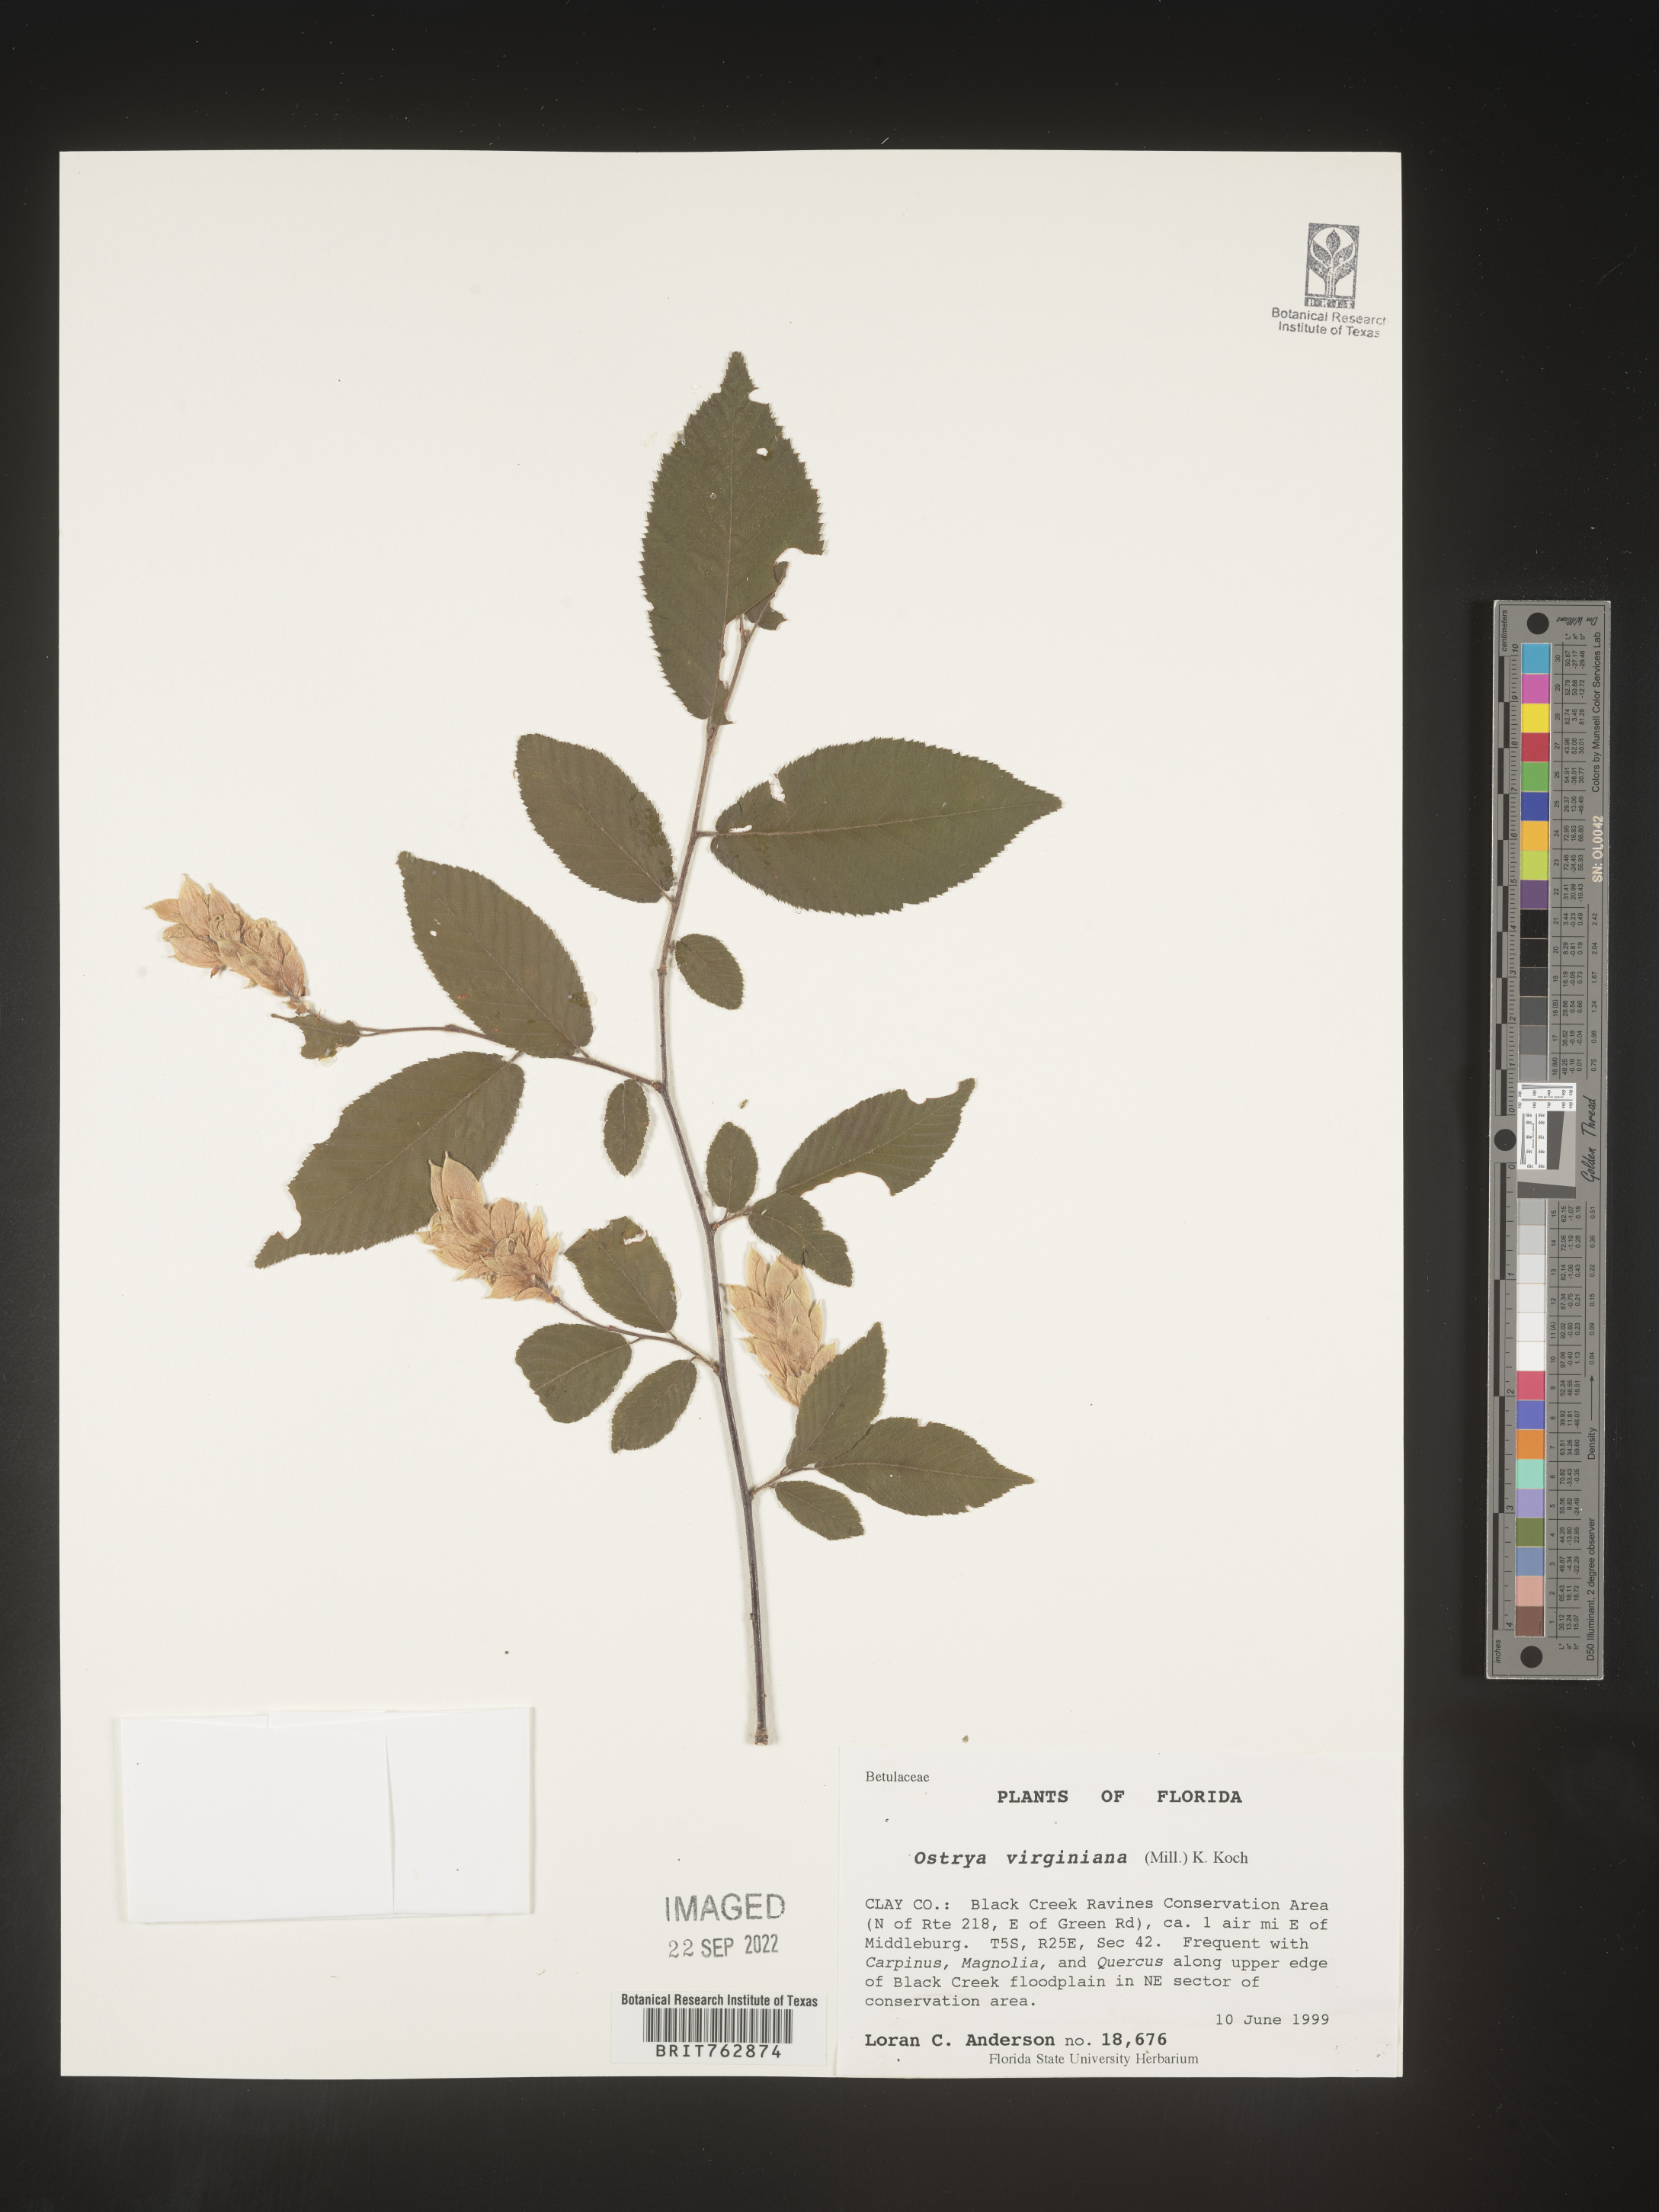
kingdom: Plantae
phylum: Tracheophyta
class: Magnoliopsida
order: Fagales
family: Betulaceae
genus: Ostrya
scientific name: Ostrya virginiana
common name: Ironwood
